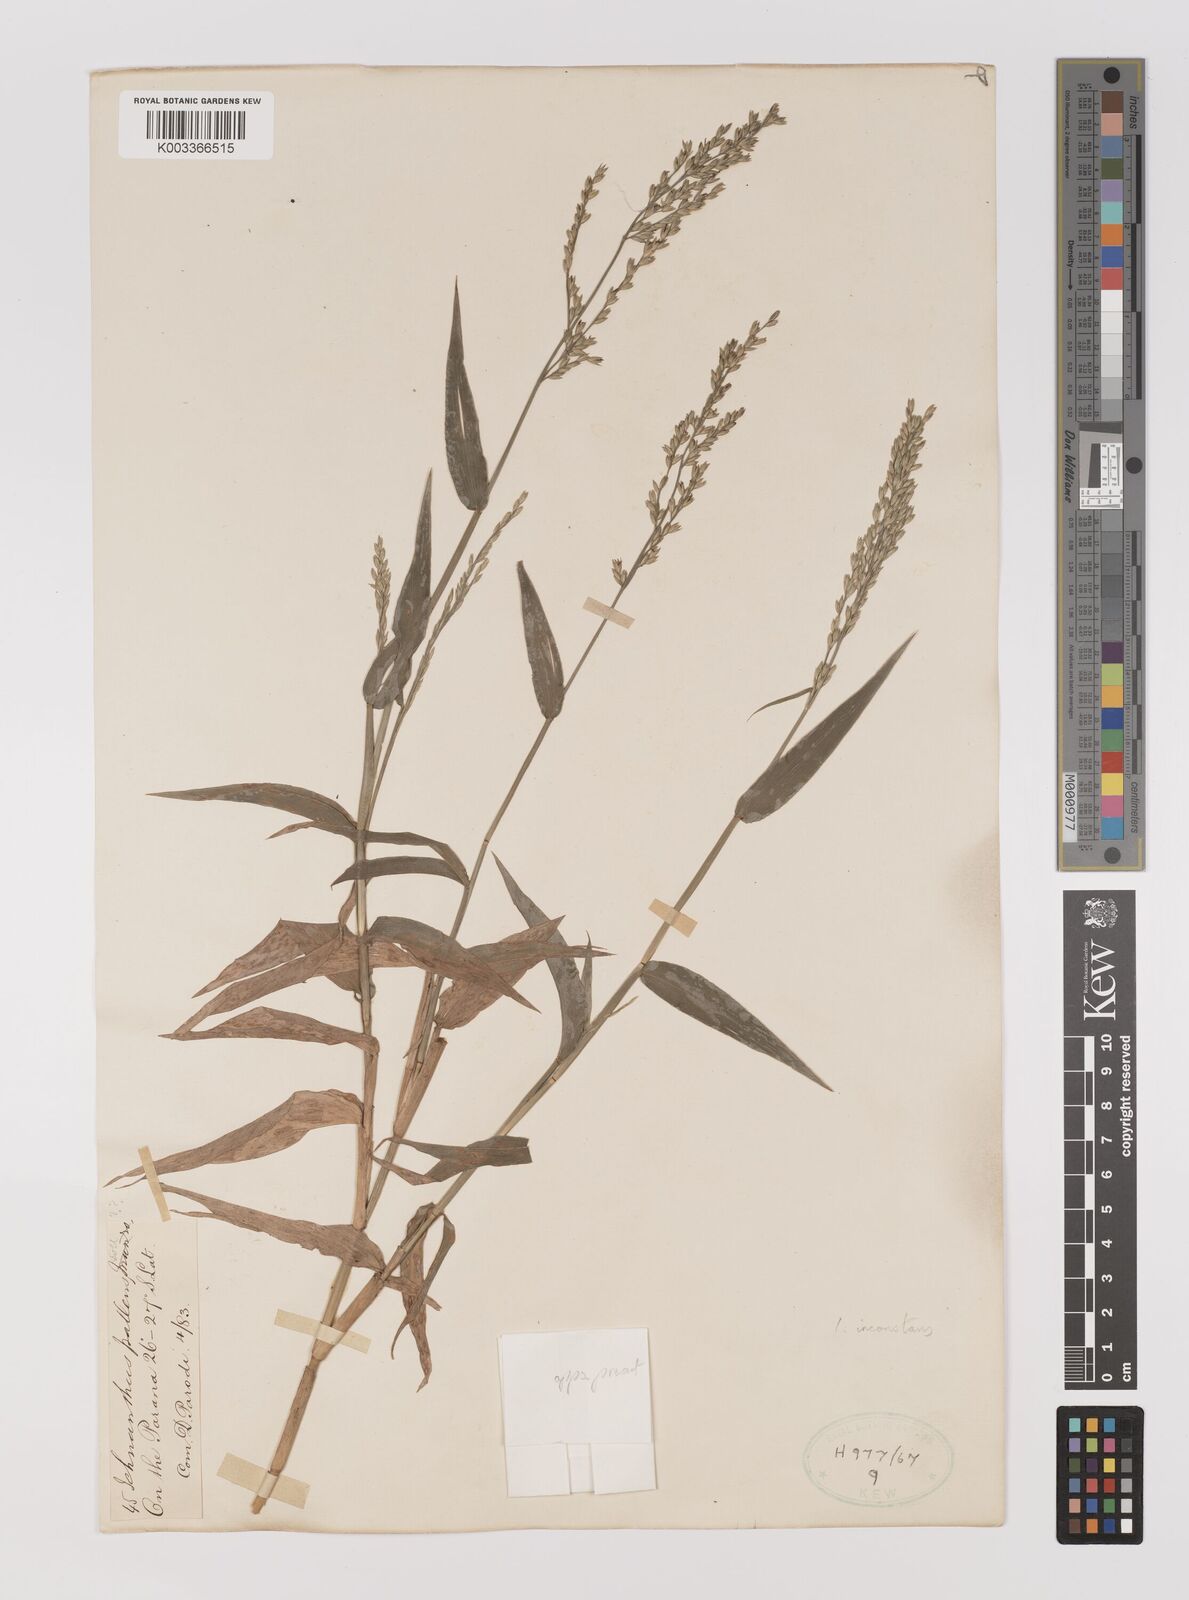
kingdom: Plantae
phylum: Tracheophyta
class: Liliopsida
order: Poales
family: Poaceae
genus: Ichnanthus
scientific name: Ichnanthus inconstans
